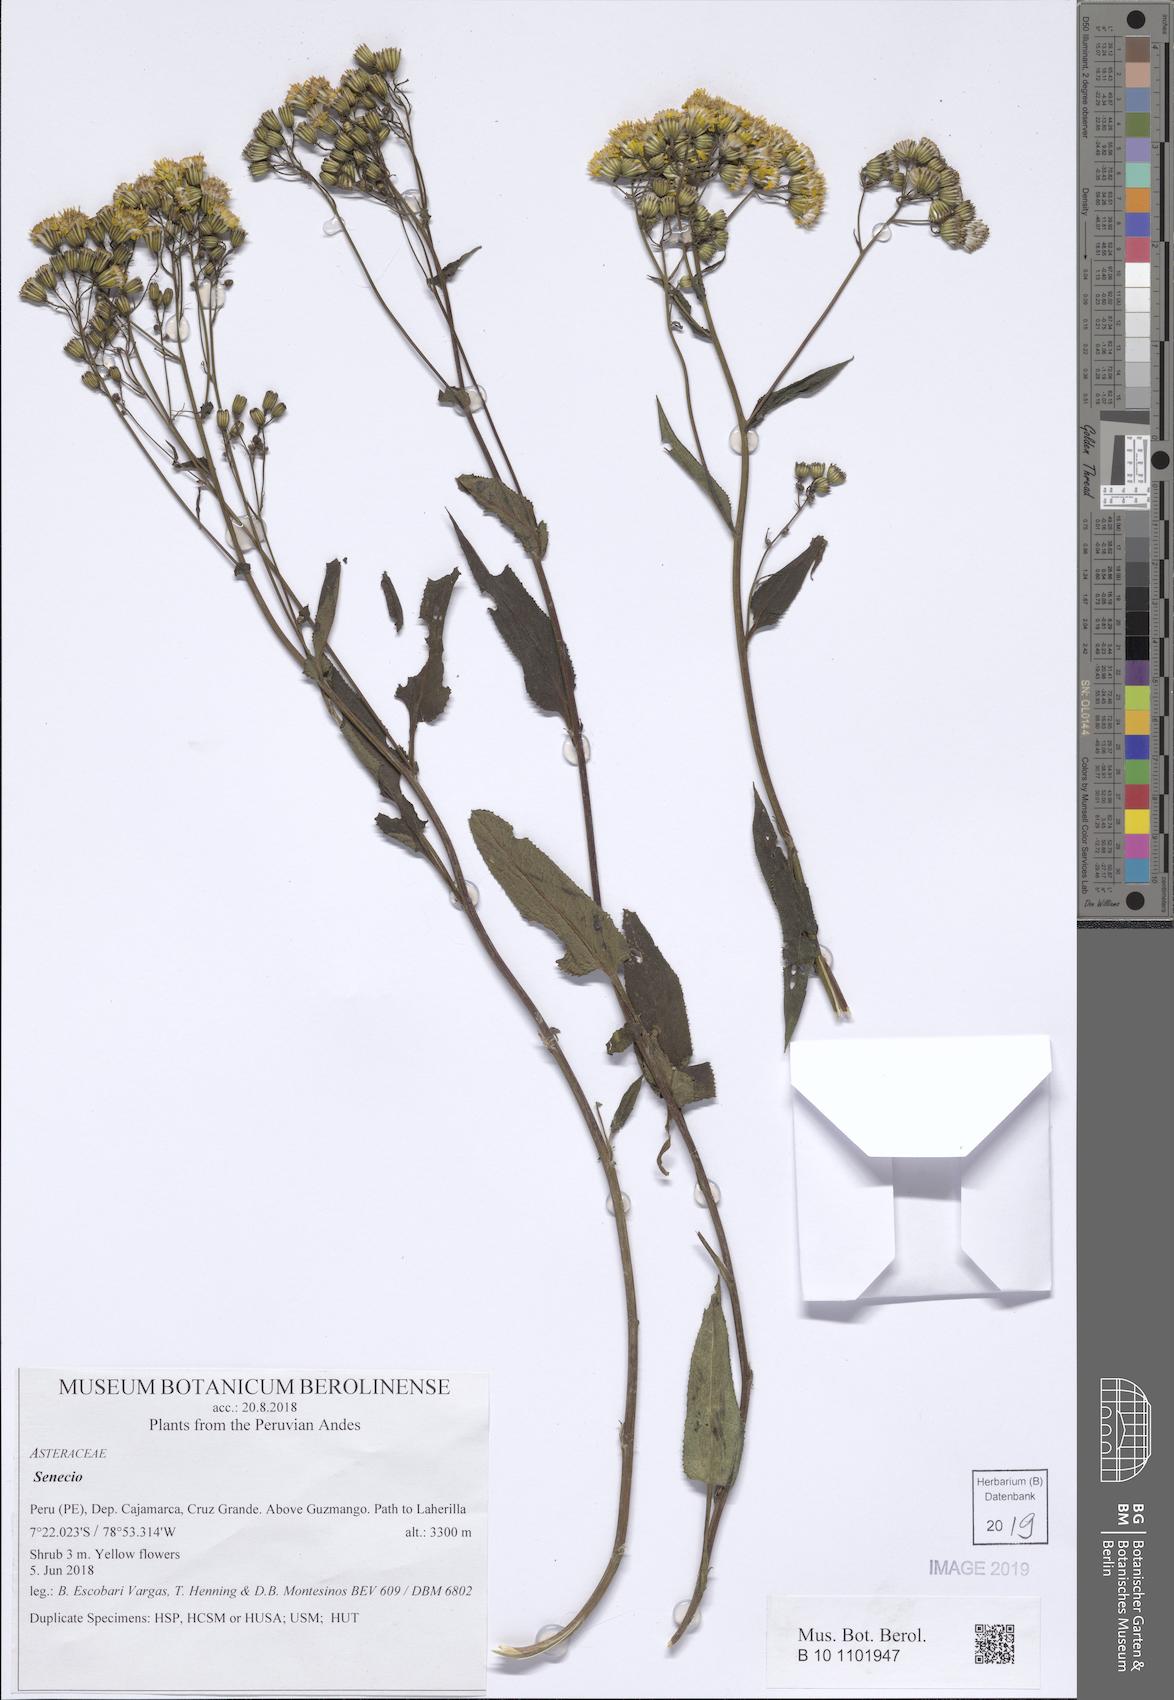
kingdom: Plantae
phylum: Tracheophyta
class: Magnoliopsida
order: Asterales
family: Asteraceae
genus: Senecio
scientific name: Senecio panticallensis
